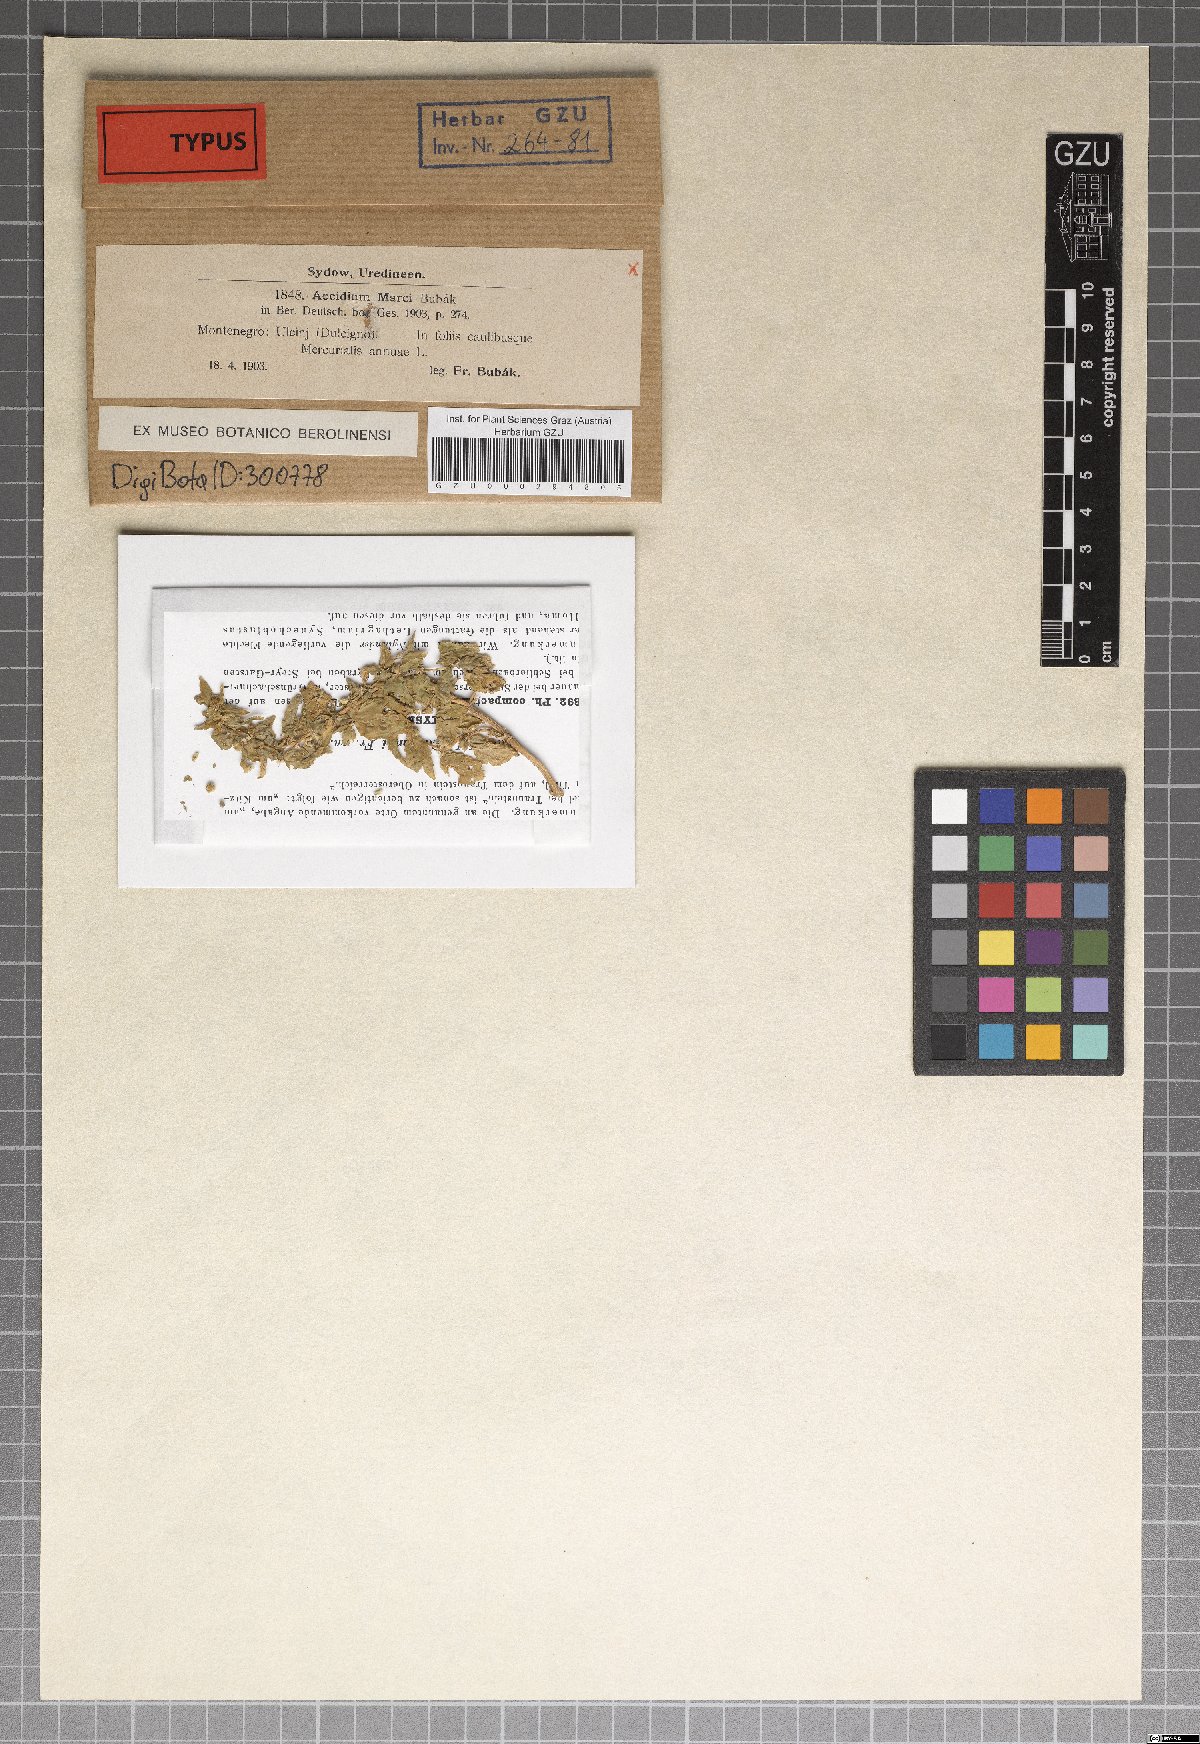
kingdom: Fungi
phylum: Basidiomycota
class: Pucciniomycetes
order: Pucciniales
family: Pucciniaceae
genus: Aecidium
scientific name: Aecidium marcii
